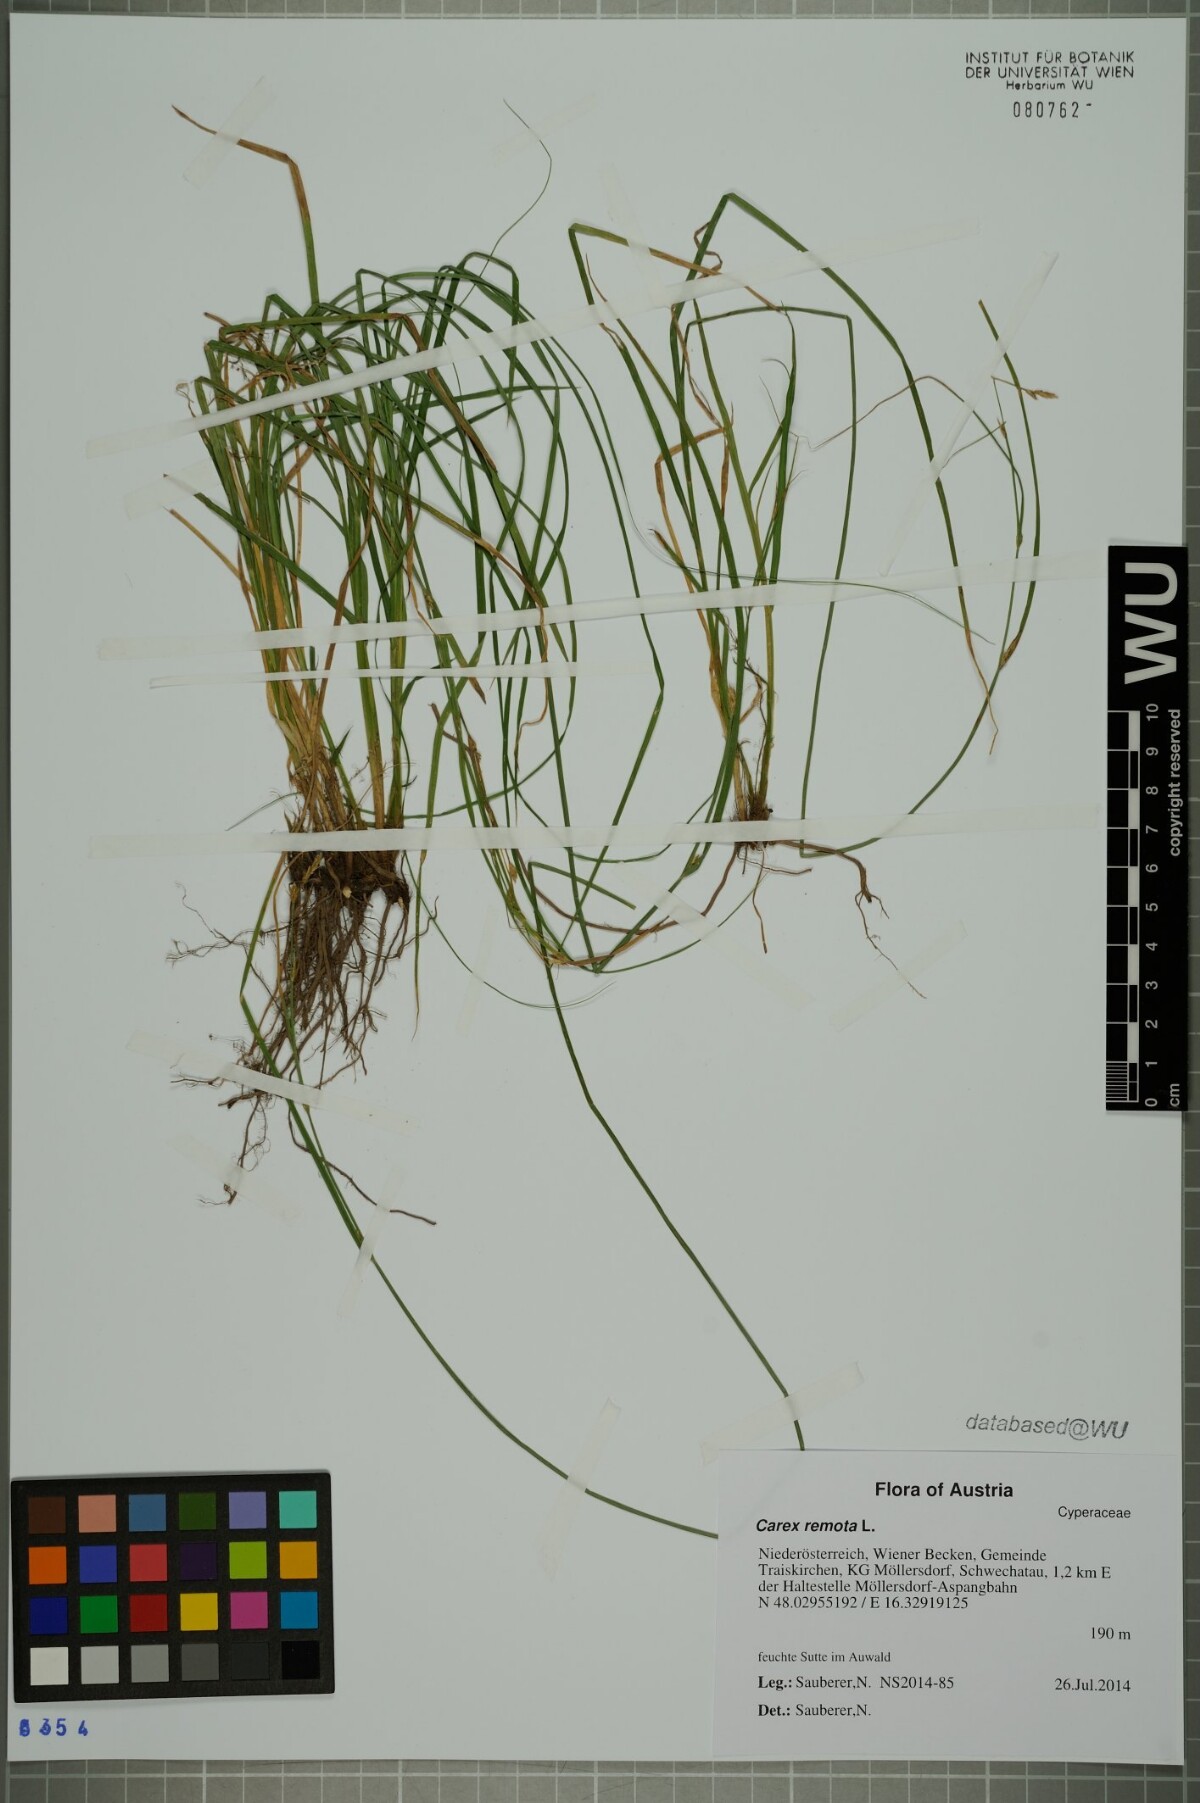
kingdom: Plantae
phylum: Tracheophyta
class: Liliopsida
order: Poales
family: Cyperaceae
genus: Carex
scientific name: Carex remota
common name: Remote sedge
